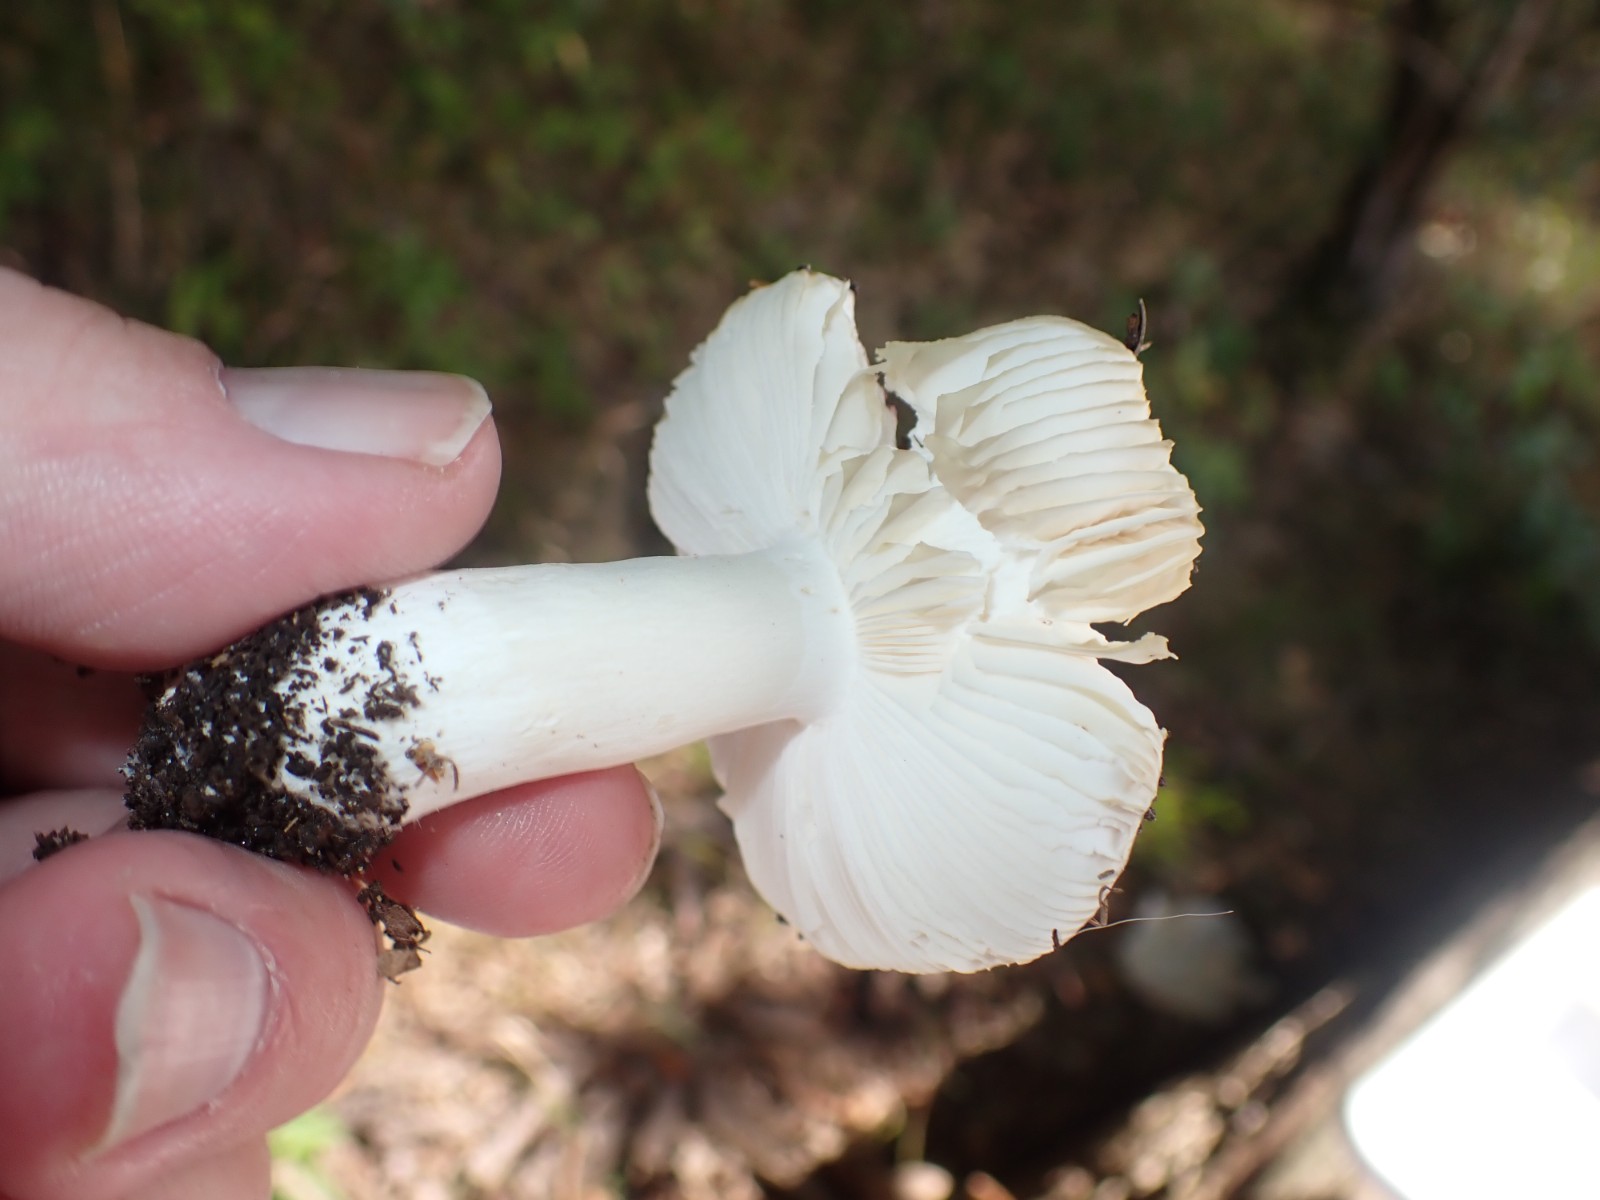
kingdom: Fungi
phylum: Basidiomycota
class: Agaricomycetes
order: Russulales
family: Russulaceae
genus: Russula
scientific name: Russula atropurpurea
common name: purpurbroget skørhat
